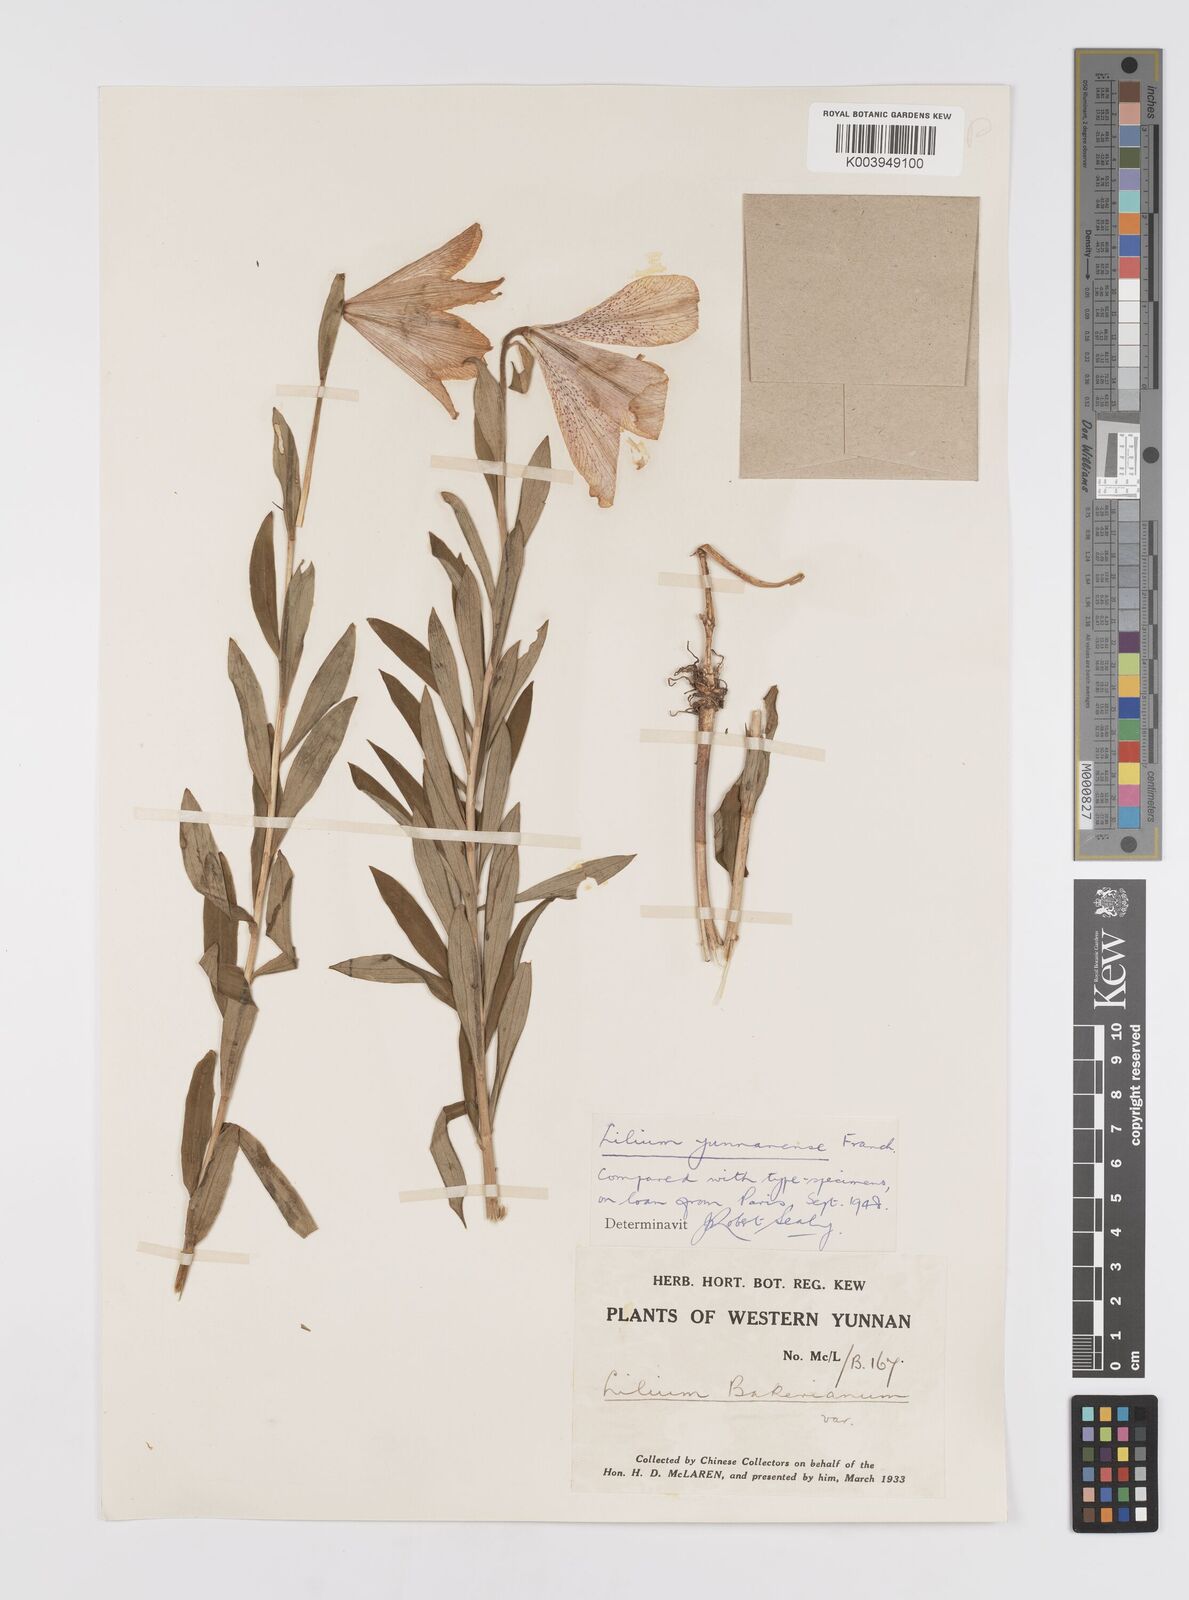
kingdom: Plantae
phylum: Tracheophyta
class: Liliopsida
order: Liliales
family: Liliaceae
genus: Lilium
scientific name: Lilium bakerianum
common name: Baker's lily
